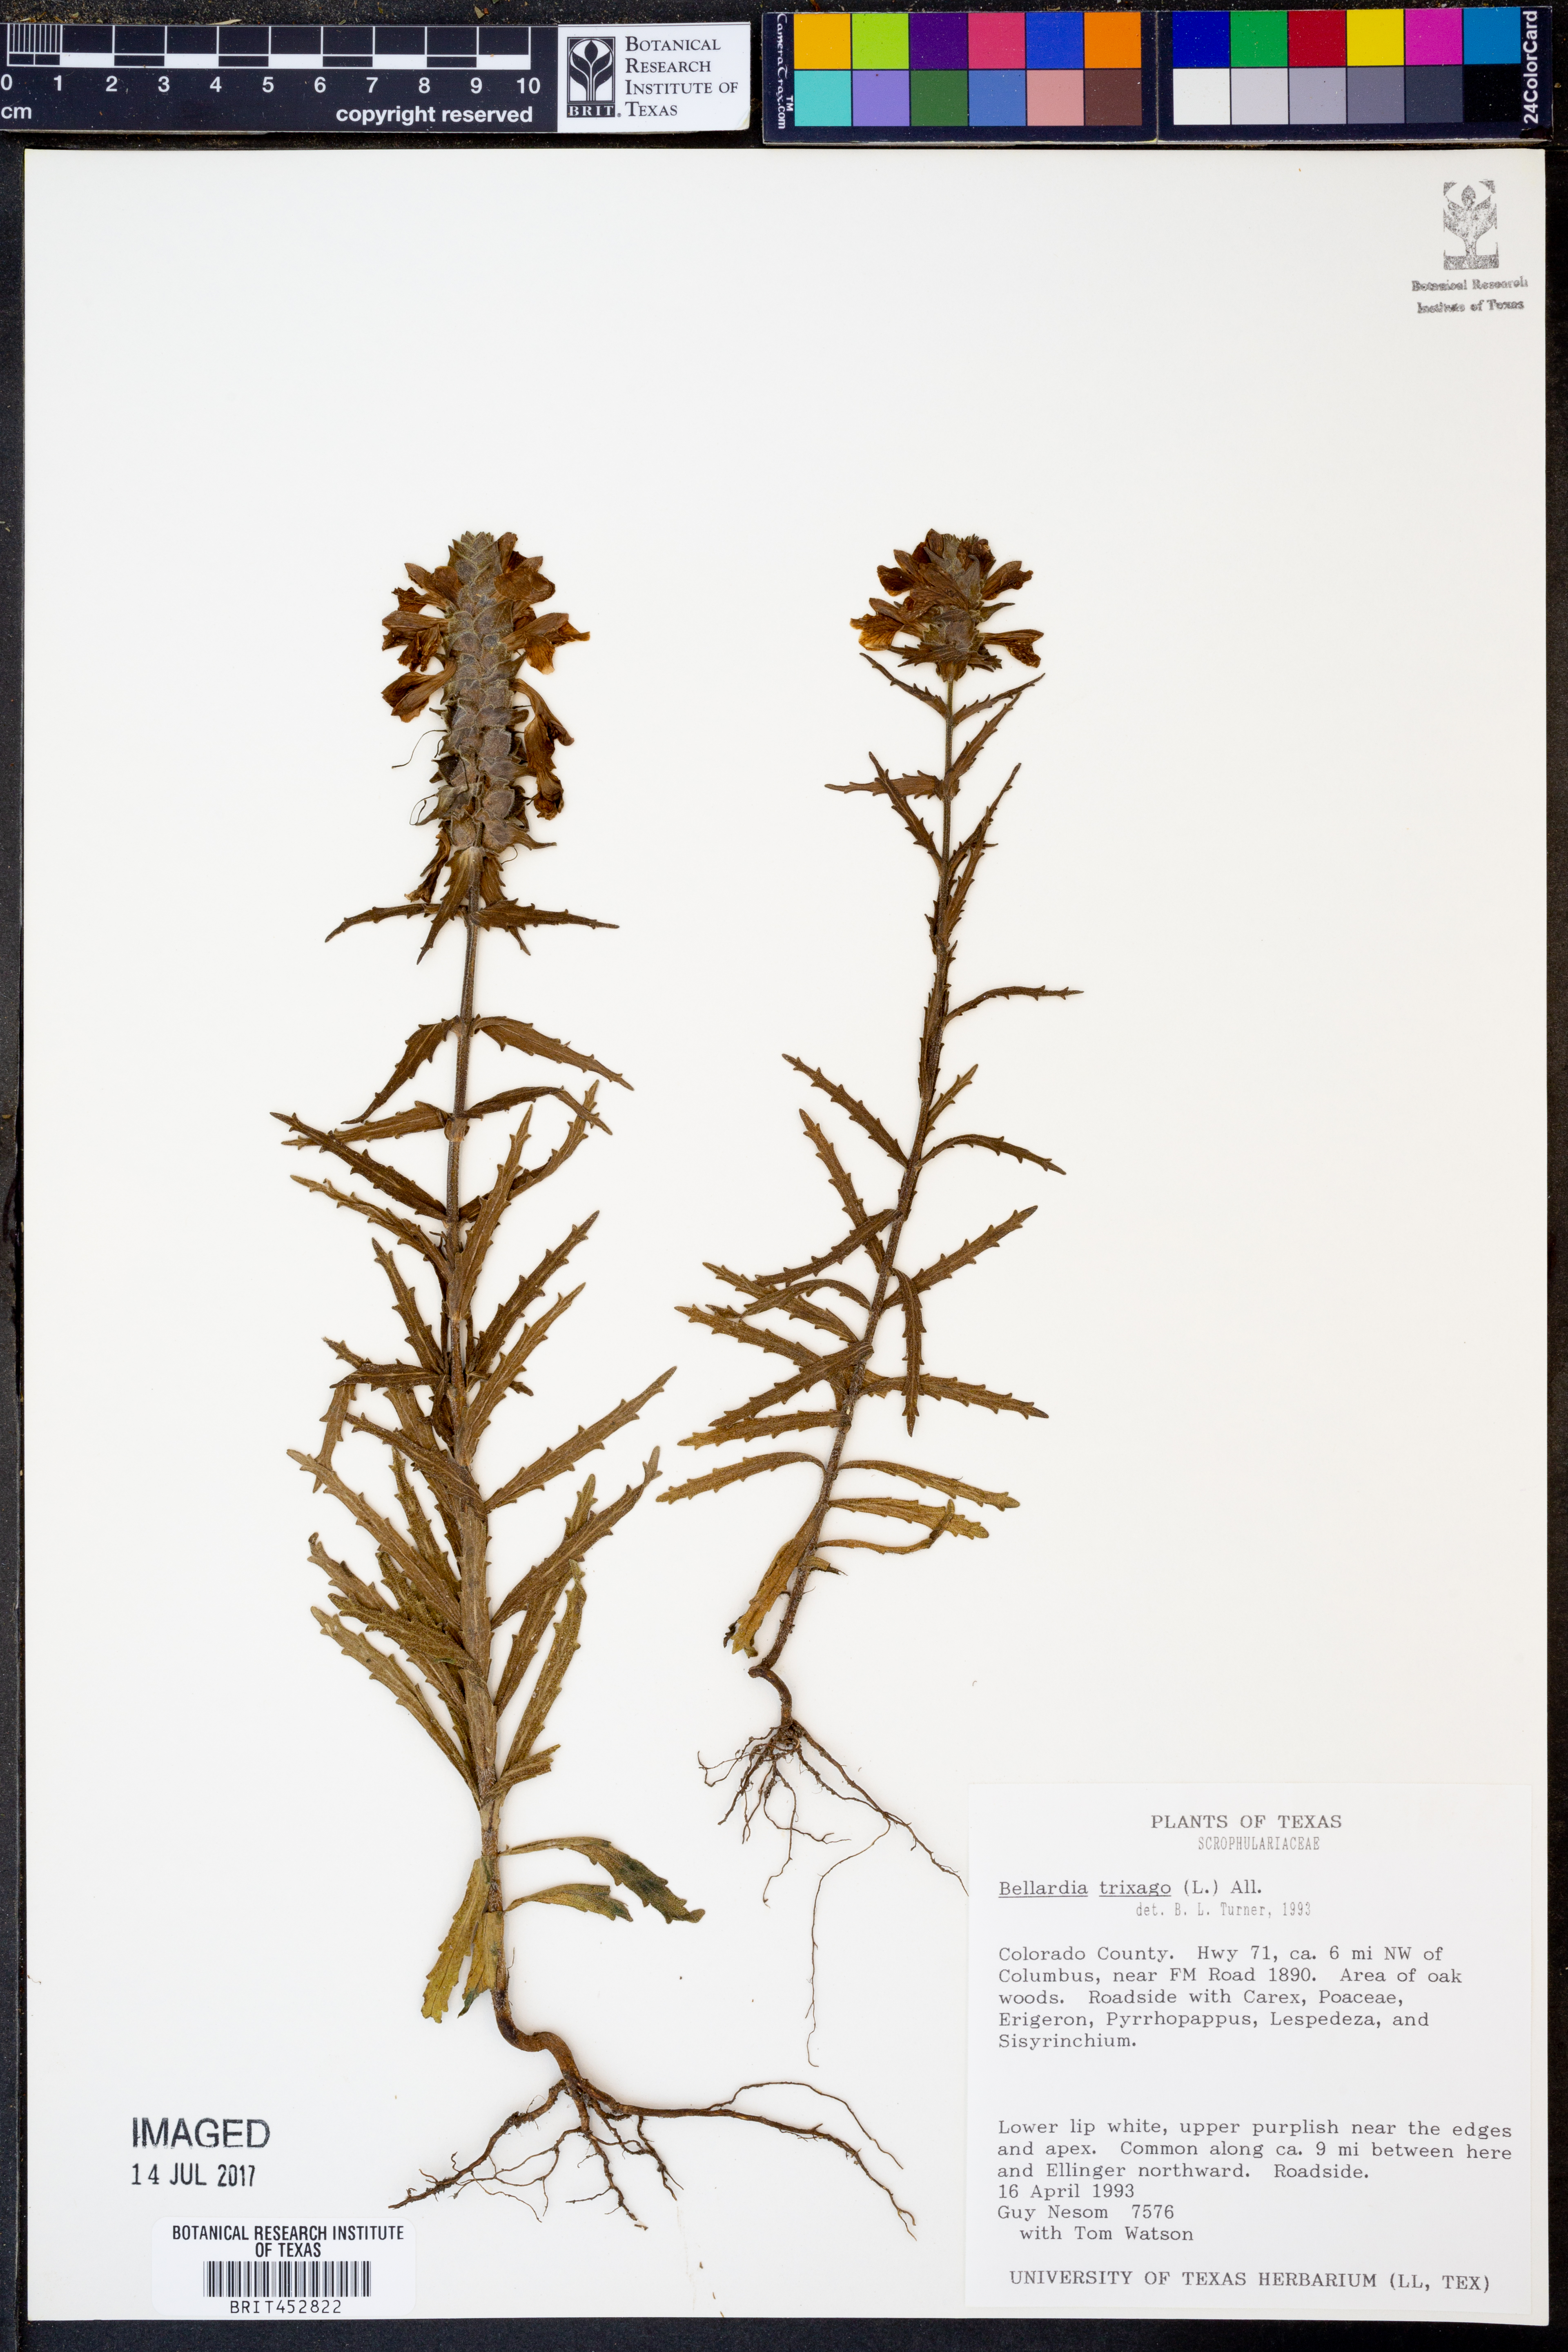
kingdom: Plantae
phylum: Tracheophyta
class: Magnoliopsida
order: Lamiales
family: Orobanchaceae
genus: Bellardia
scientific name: Bellardia trixago
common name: Mediterranean lineseed
